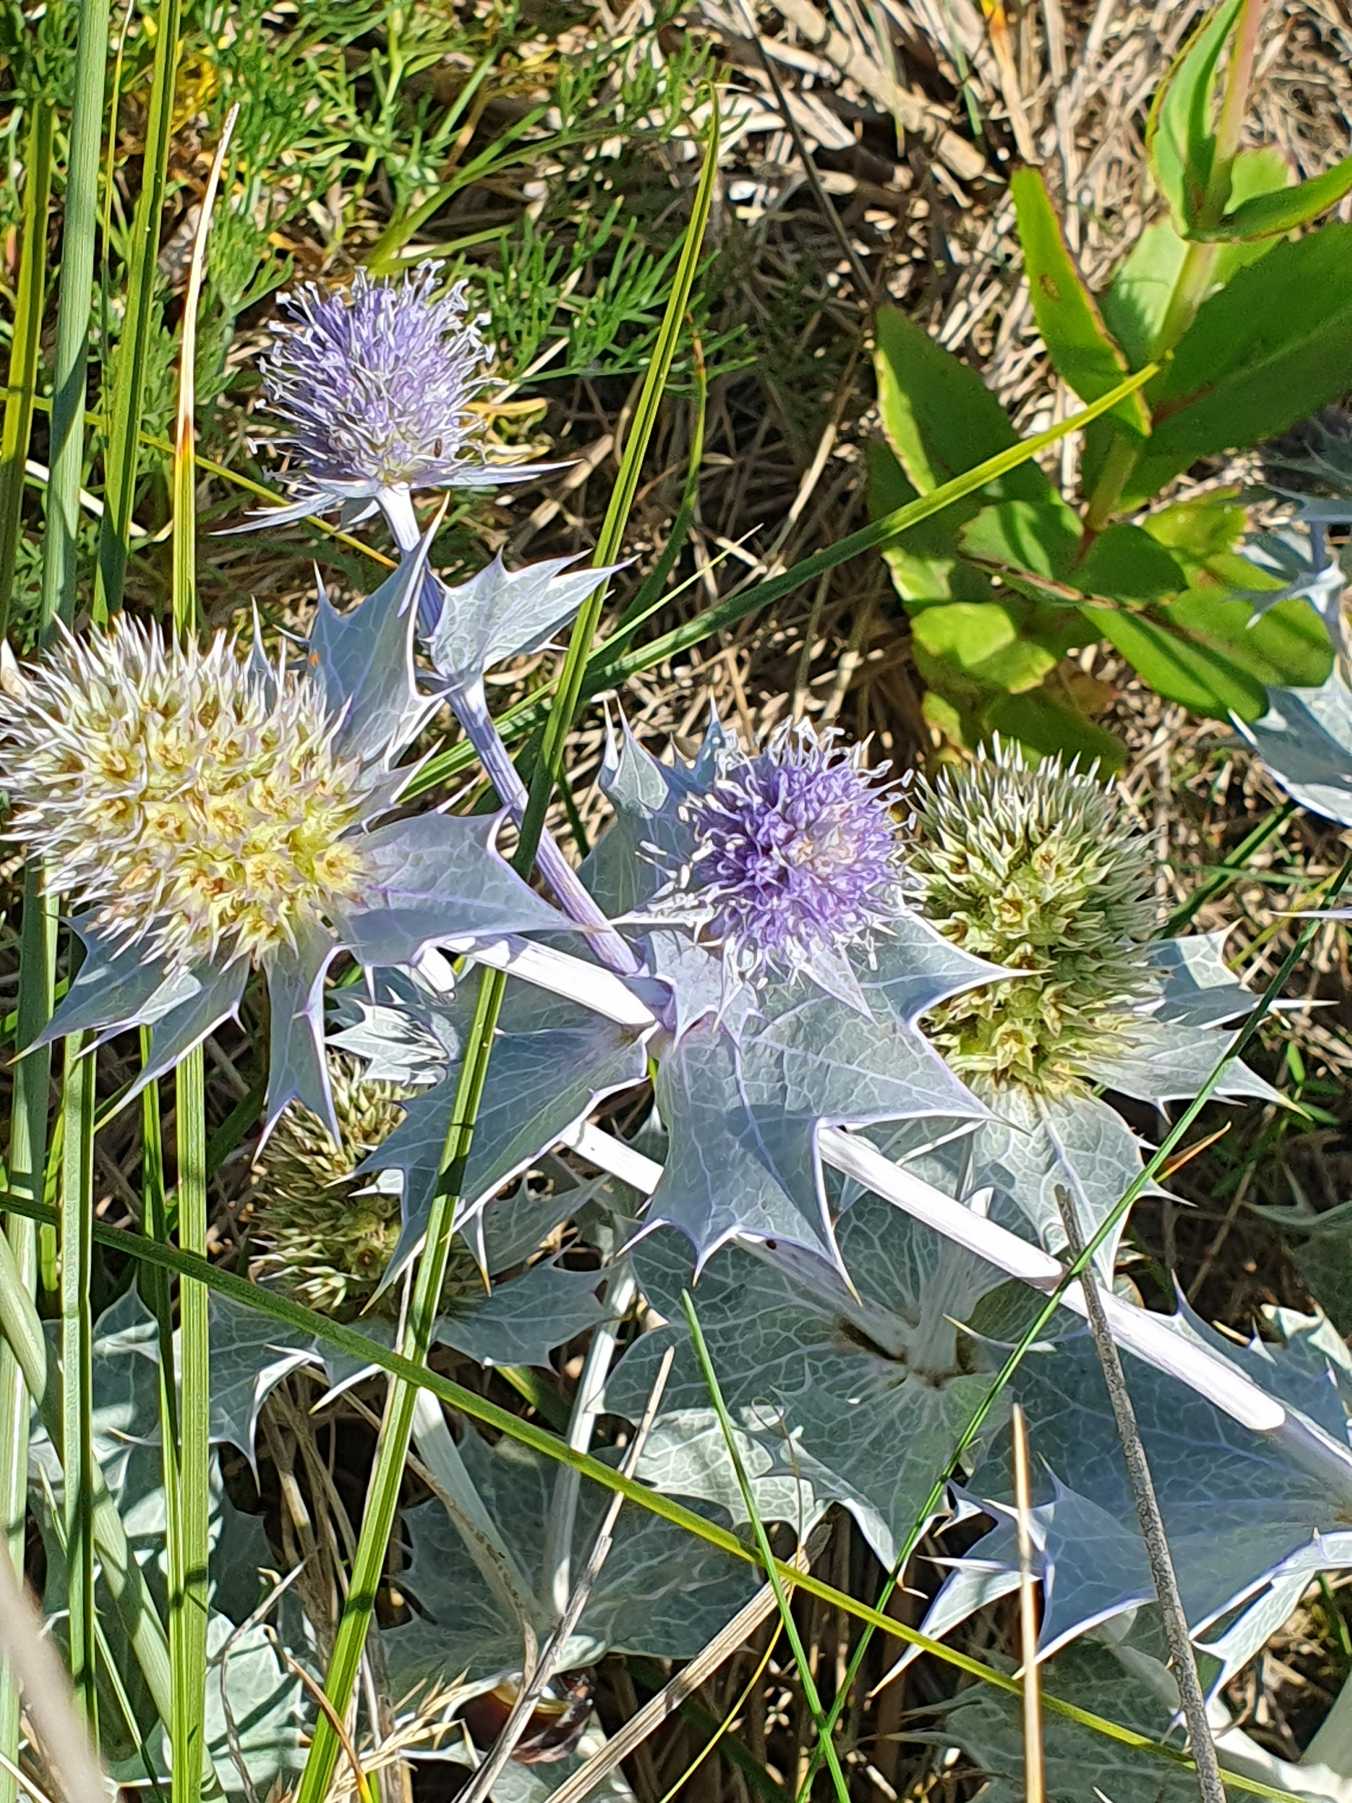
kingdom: Plantae
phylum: Tracheophyta
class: Magnoliopsida
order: Apiales
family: Apiaceae
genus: Eryngium
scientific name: Eryngium maritimum
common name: Strand-mandstro
